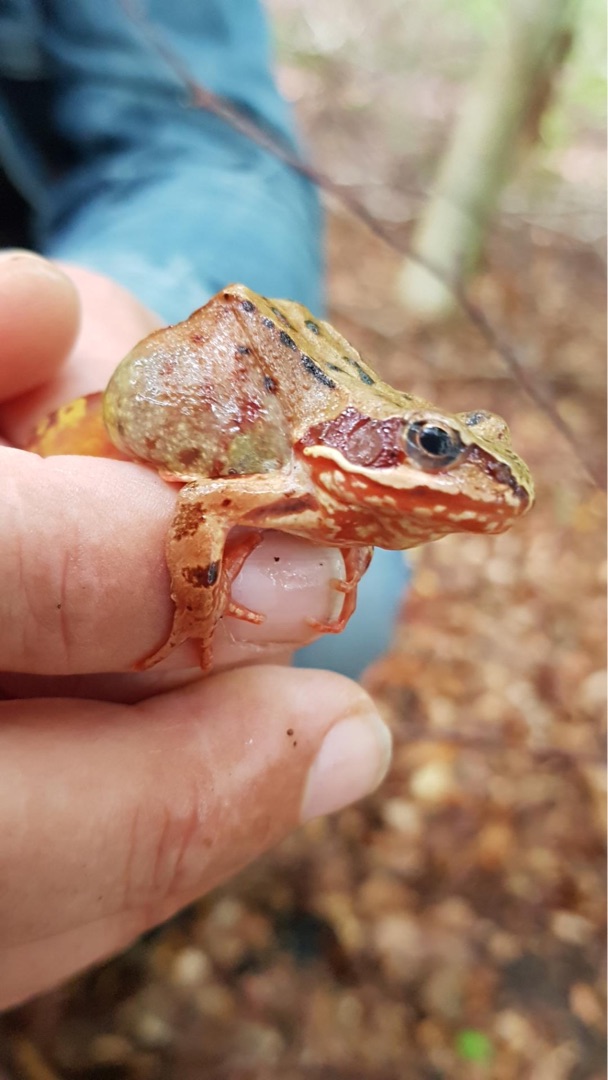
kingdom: Animalia
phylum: Chordata
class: Amphibia
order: Anura
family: Ranidae
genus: Rana
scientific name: Rana temporaria
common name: Butsnudet frø
